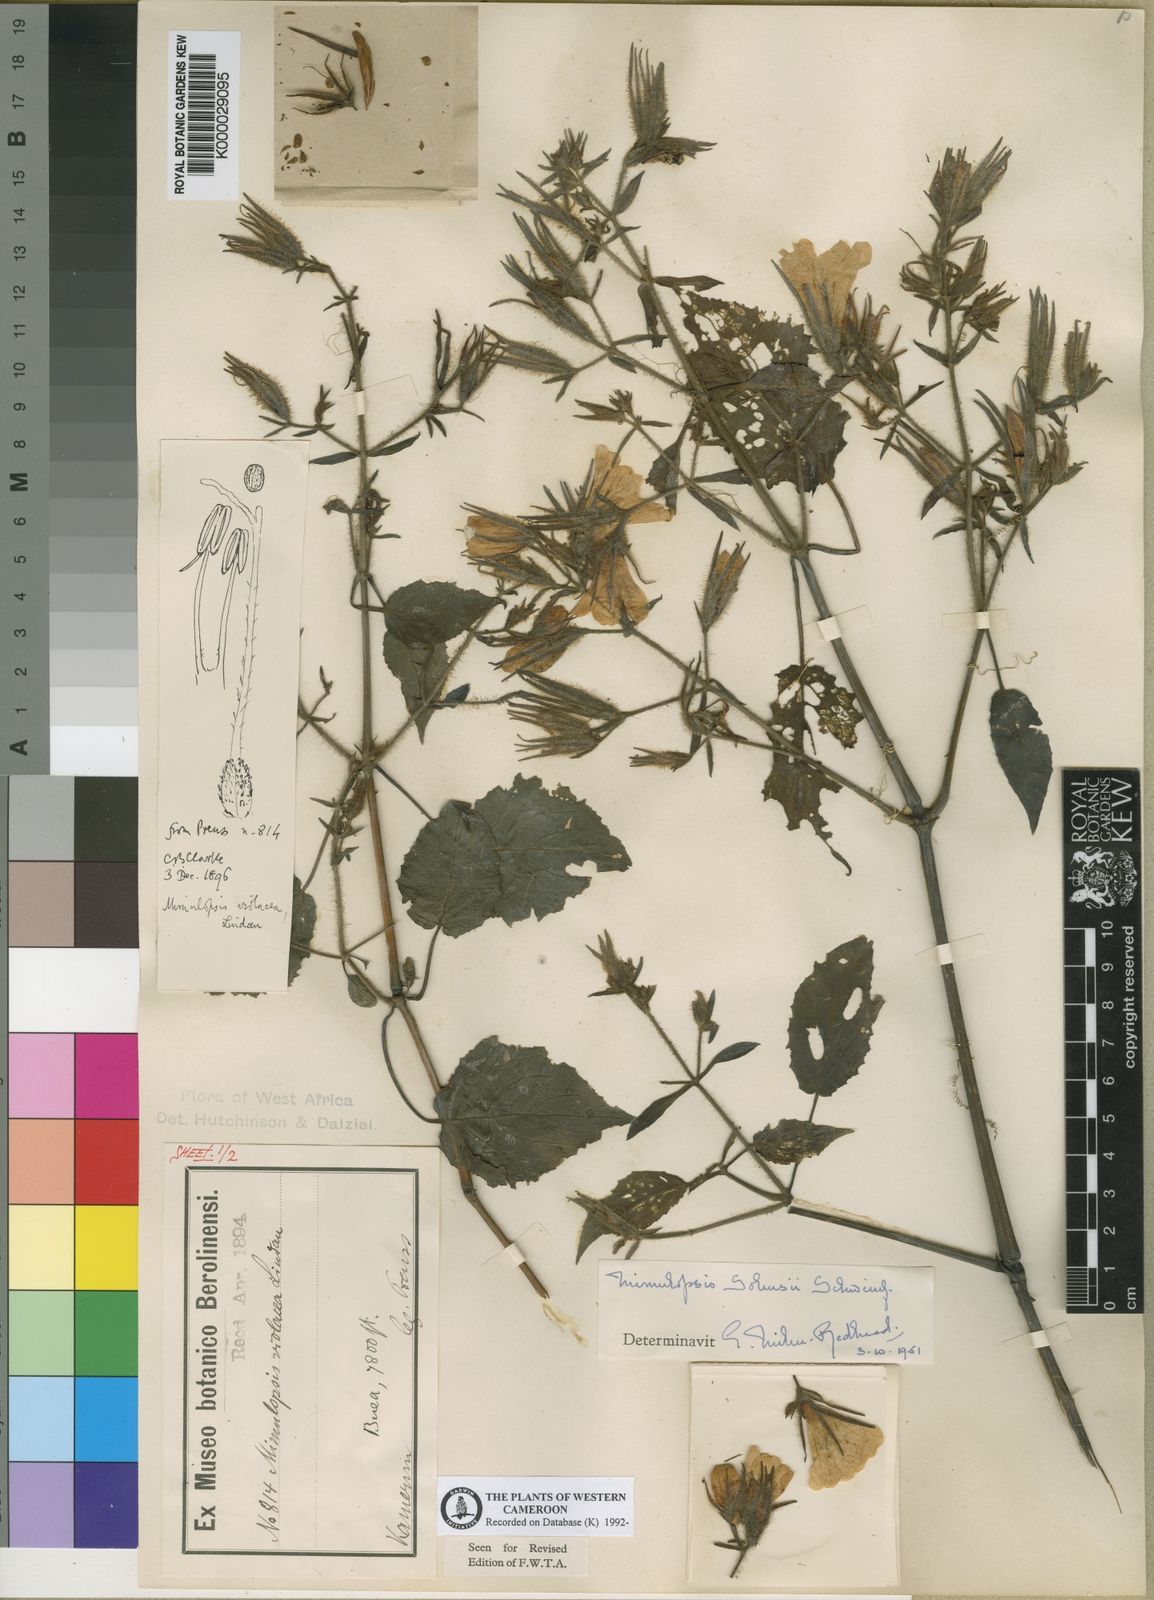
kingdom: Plantae
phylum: Tracheophyta
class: Magnoliopsida
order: Lamiales
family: Acanthaceae
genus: Mimulopsis
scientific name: Mimulopsis solmsii
